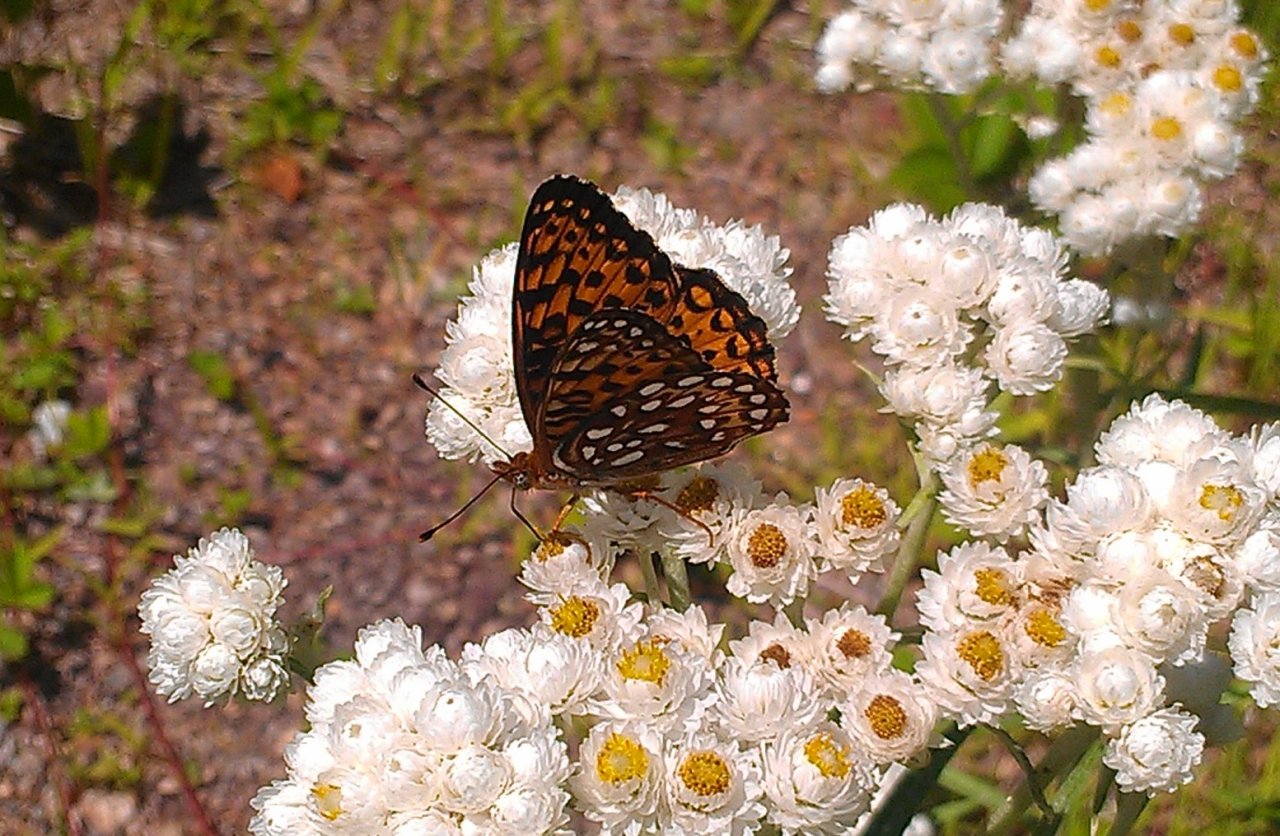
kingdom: Animalia
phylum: Arthropoda
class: Insecta
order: Lepidoptera
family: Nymphalidae
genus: Speyeria
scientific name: Speyeria atlantis
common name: Atlantis Fritillary
